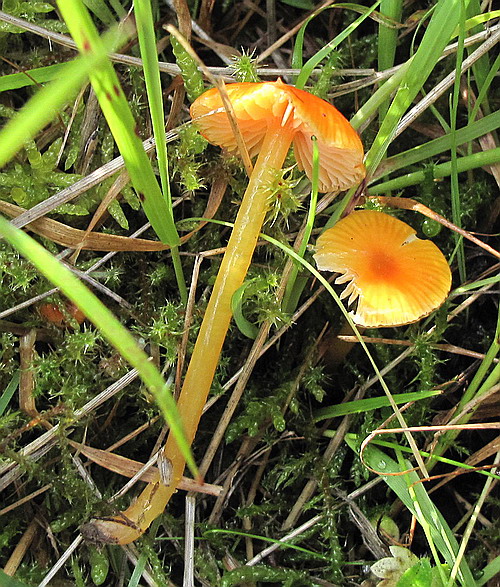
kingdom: Fungi
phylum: Basidiomycota
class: Agaricomycetes
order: Agaricales
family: Hygrophoraceae
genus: Hygrocybe
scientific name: Hygrocybe glutinipes
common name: slimstokket vokshat
